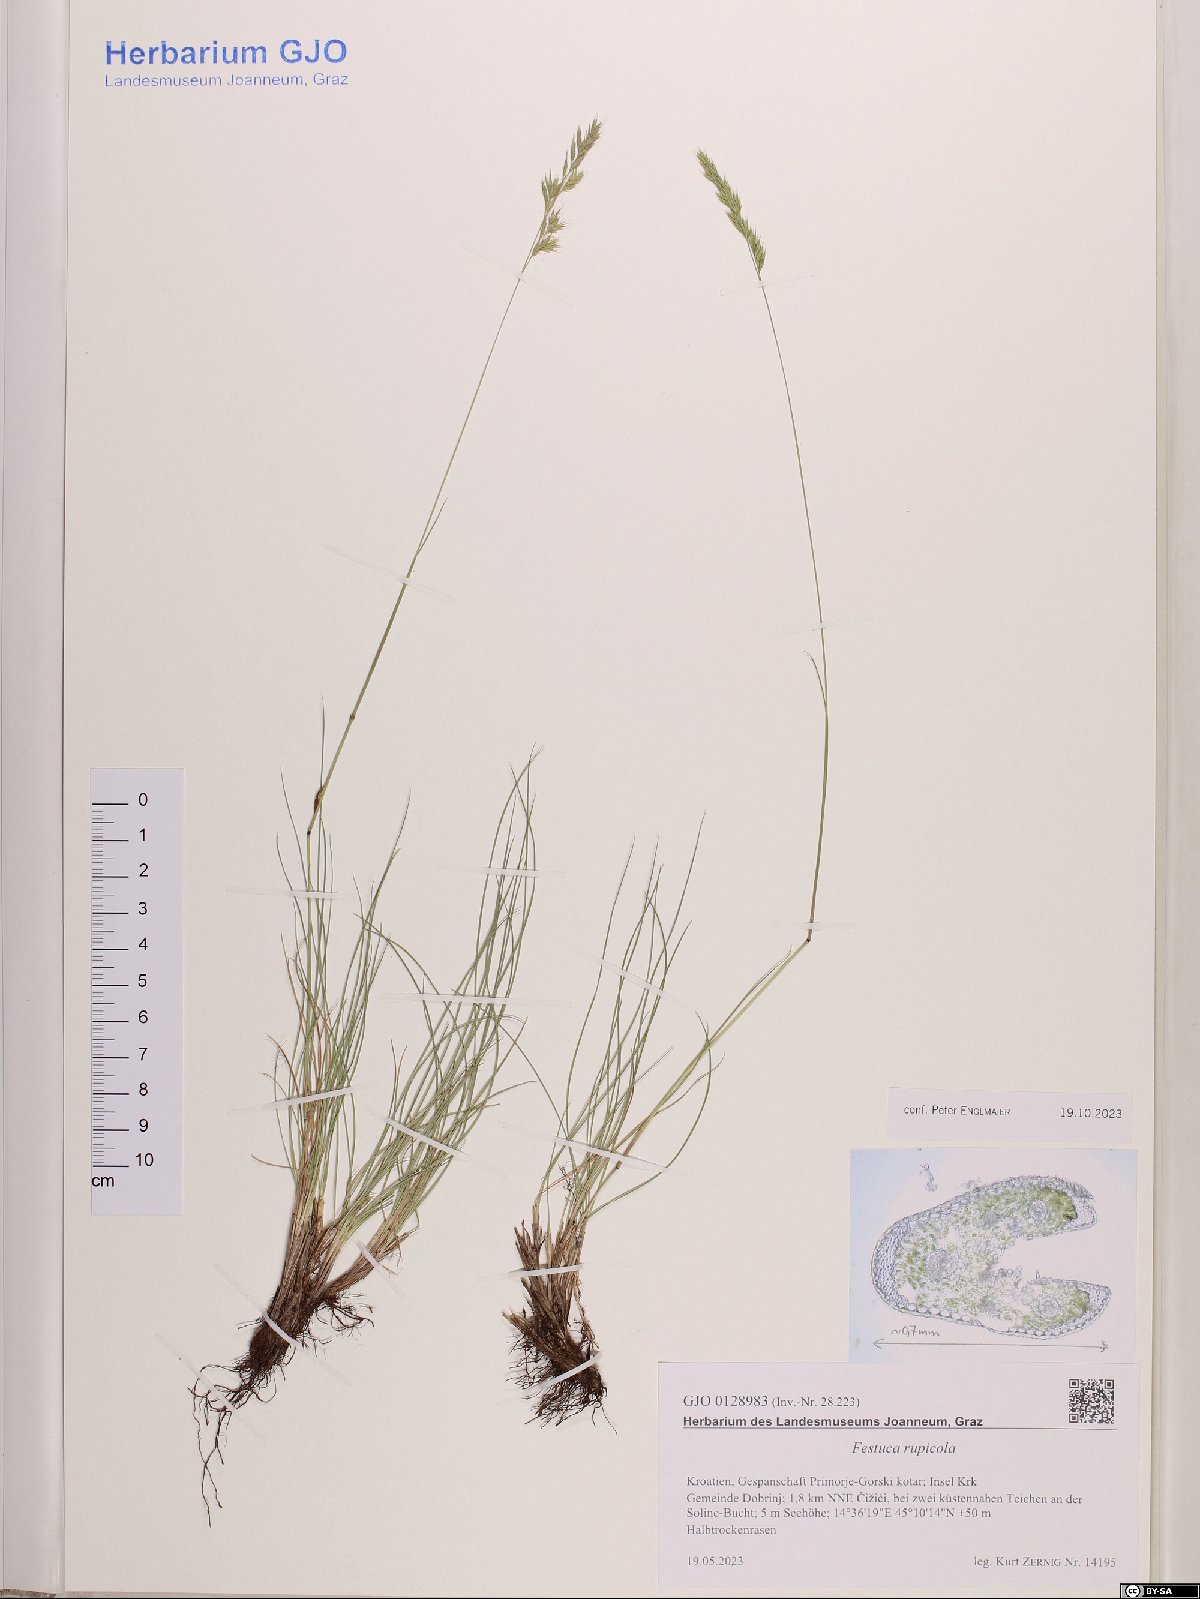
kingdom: Plantae
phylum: Tracheophyta
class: Liliopsida
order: Poales
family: Poaceae
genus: Festuca
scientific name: Festuca rupicola
